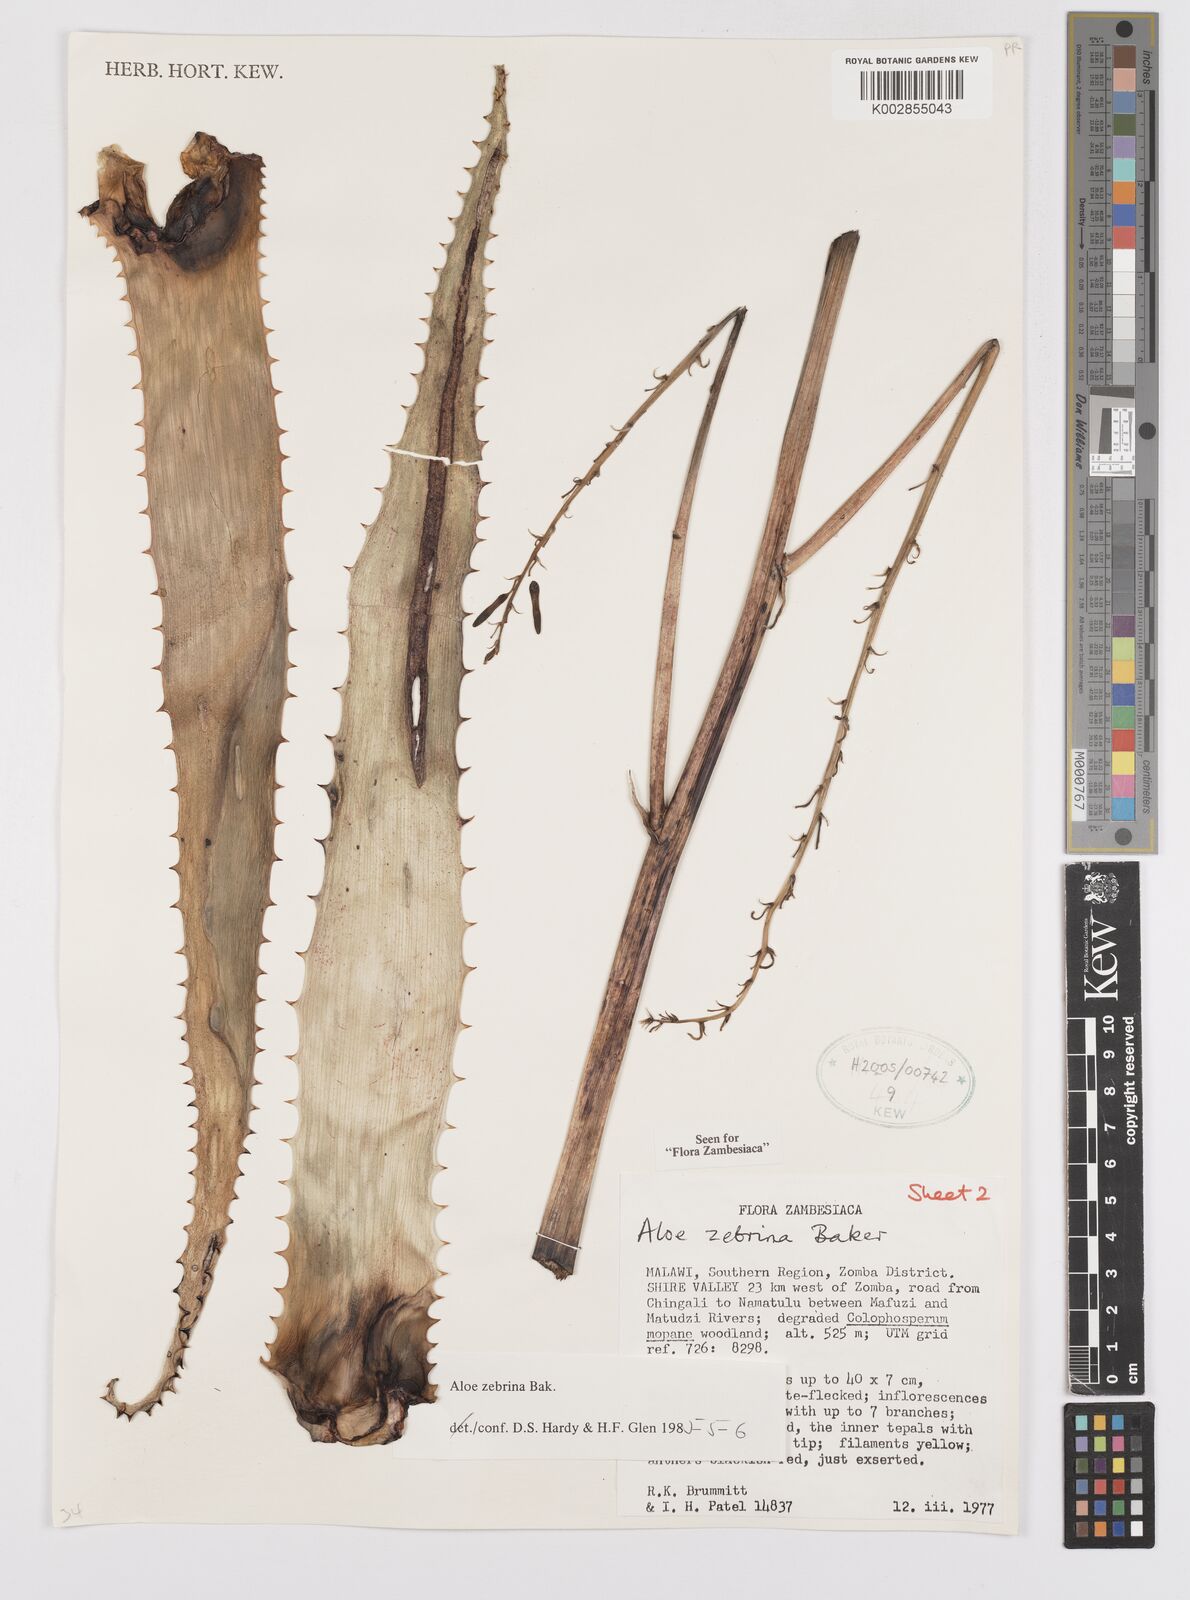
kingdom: Plantae
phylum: Tracheophyta
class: Liliopsida
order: Asparagales
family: Asphodelaceae
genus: Aloe
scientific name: Aloe zebrina
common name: Zebra-leaf aloe
